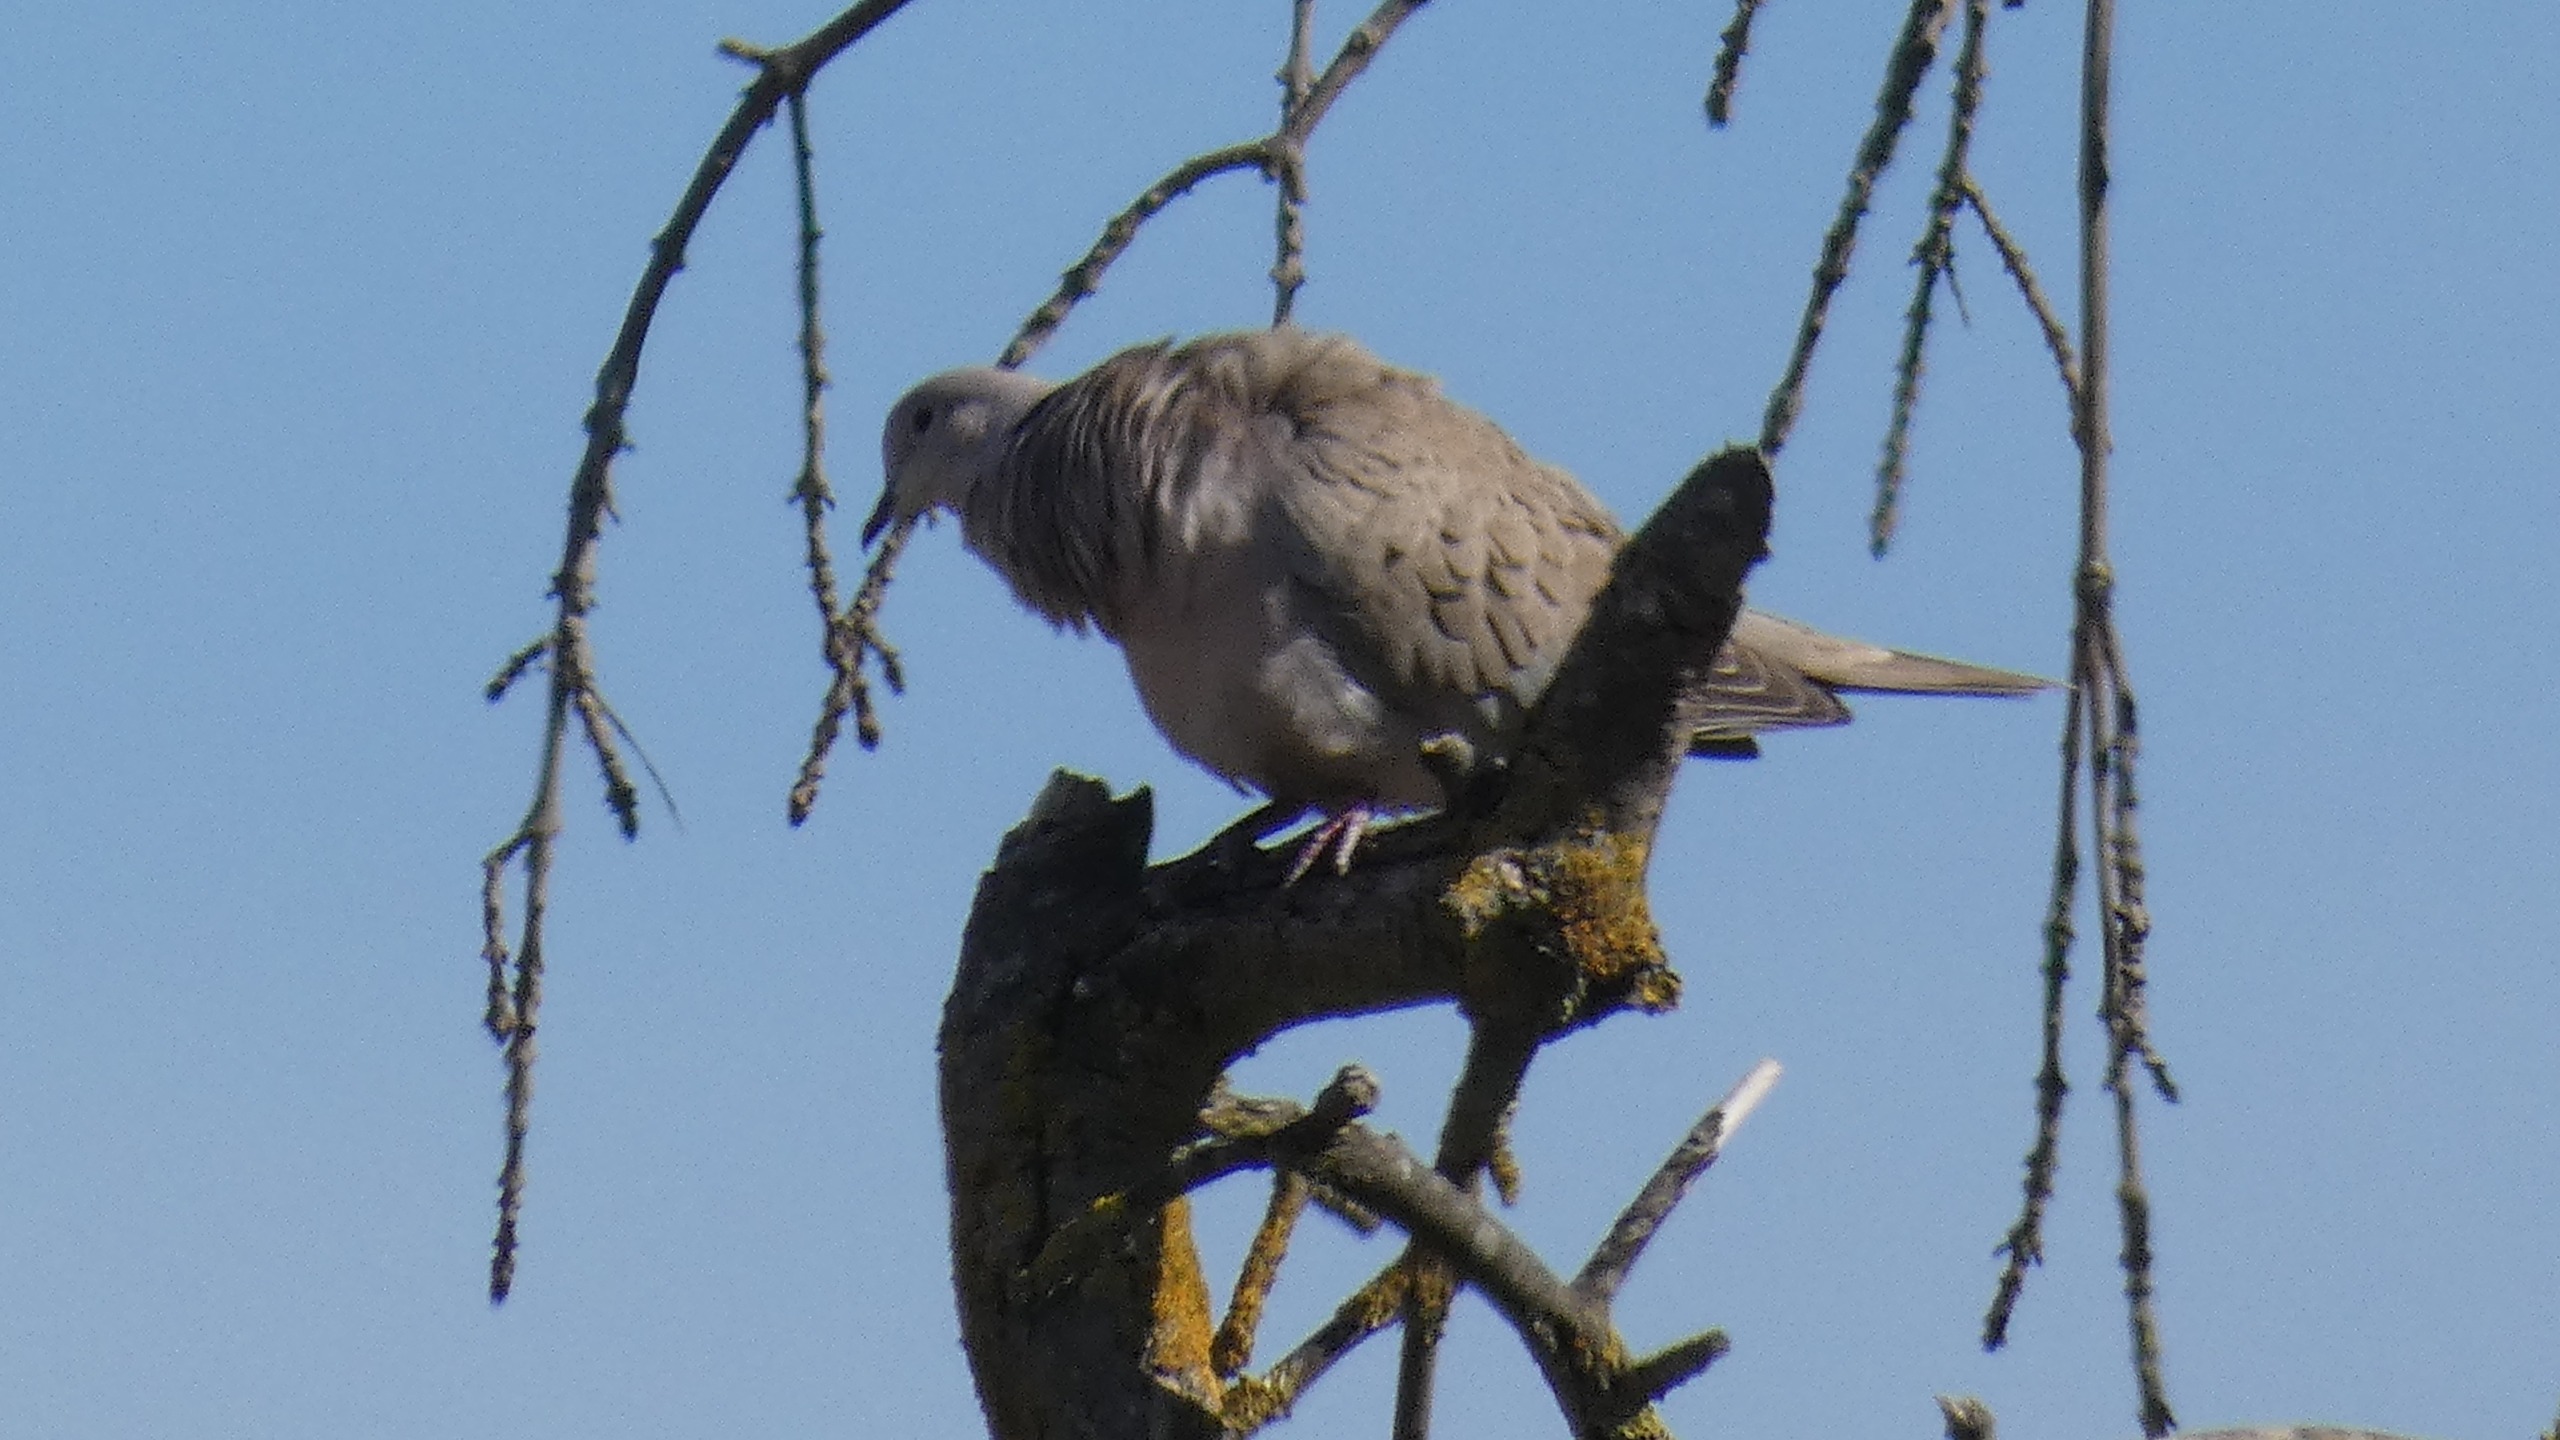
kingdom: Animalia
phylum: Chordata
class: Aves
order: Columbiformes
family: Columbidae
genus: Streptopelia
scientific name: Streptopelia decaocto
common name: Tyrkerdue
